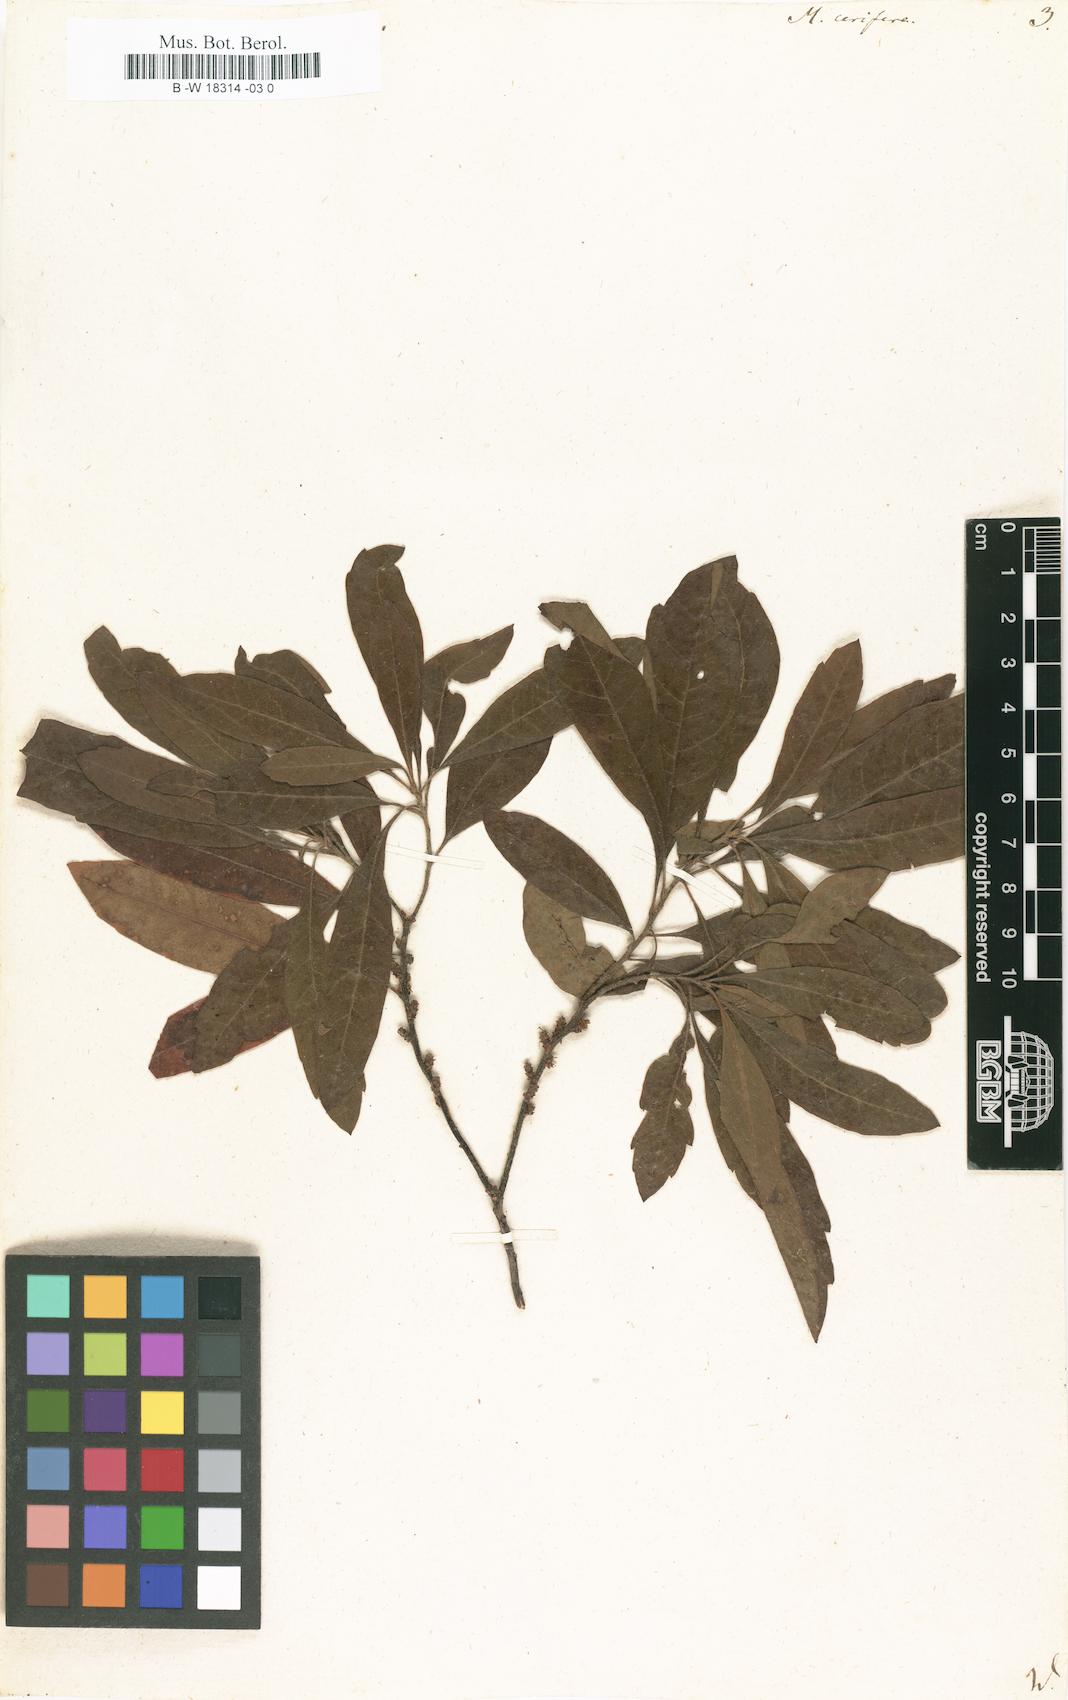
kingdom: Plantae
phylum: Tracheophyta
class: Magnoliopsida
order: Fagales
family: Myricaceae
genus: Morella
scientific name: Morella cerifera
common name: Wax myrtle
